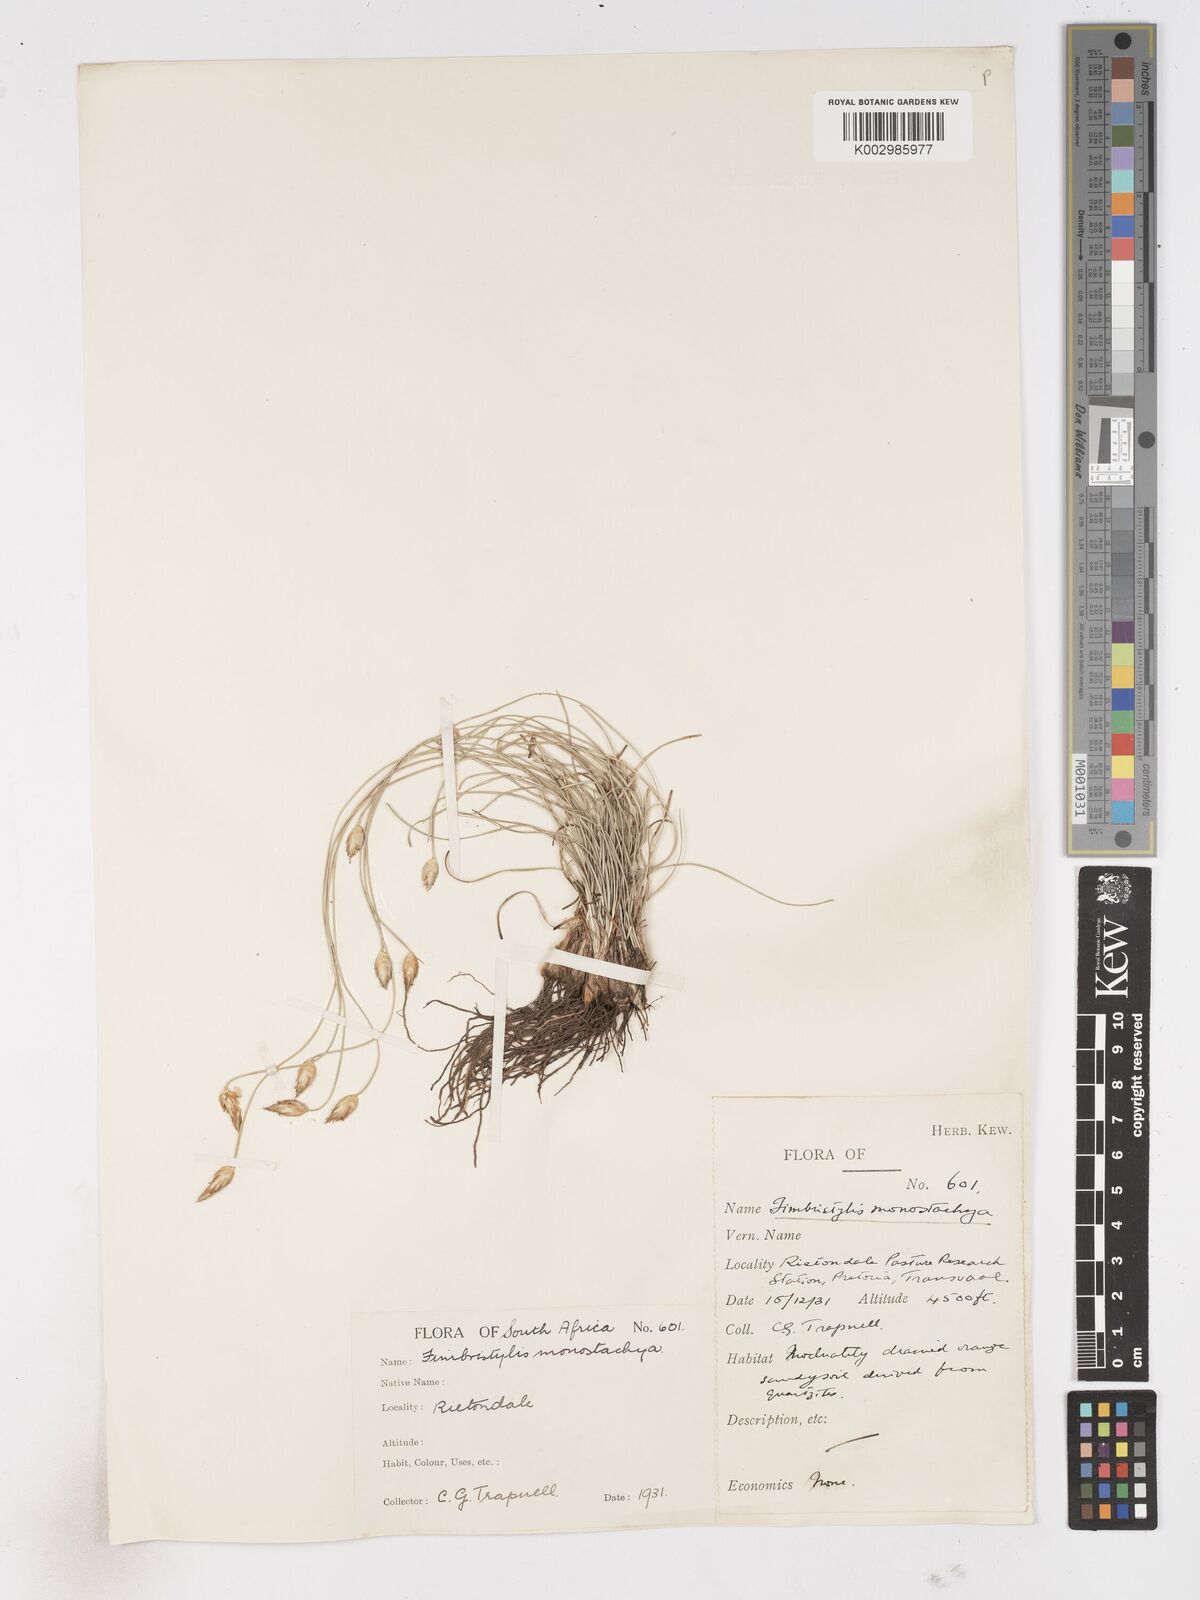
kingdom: Plantae
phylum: Tracheophyta
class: Liliopsida
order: Poales
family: Cyperaceae
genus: Abildgaardia
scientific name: Abildgaardia ovata
